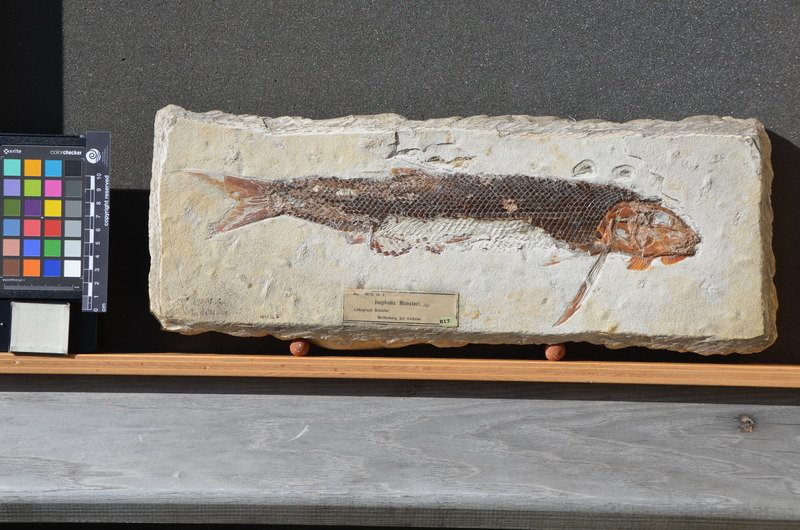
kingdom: Animalia
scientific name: Animalia
